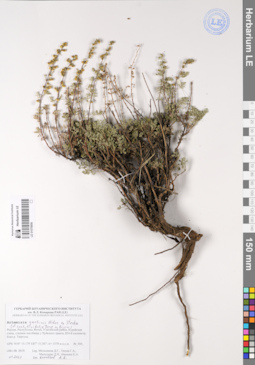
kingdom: Plantae
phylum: Tracheophyta
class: Magnoliopsida
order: Asterales
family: Asteraceae
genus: Artemisia
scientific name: Artemisia gmelinii
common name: Gmelin's wormwood
